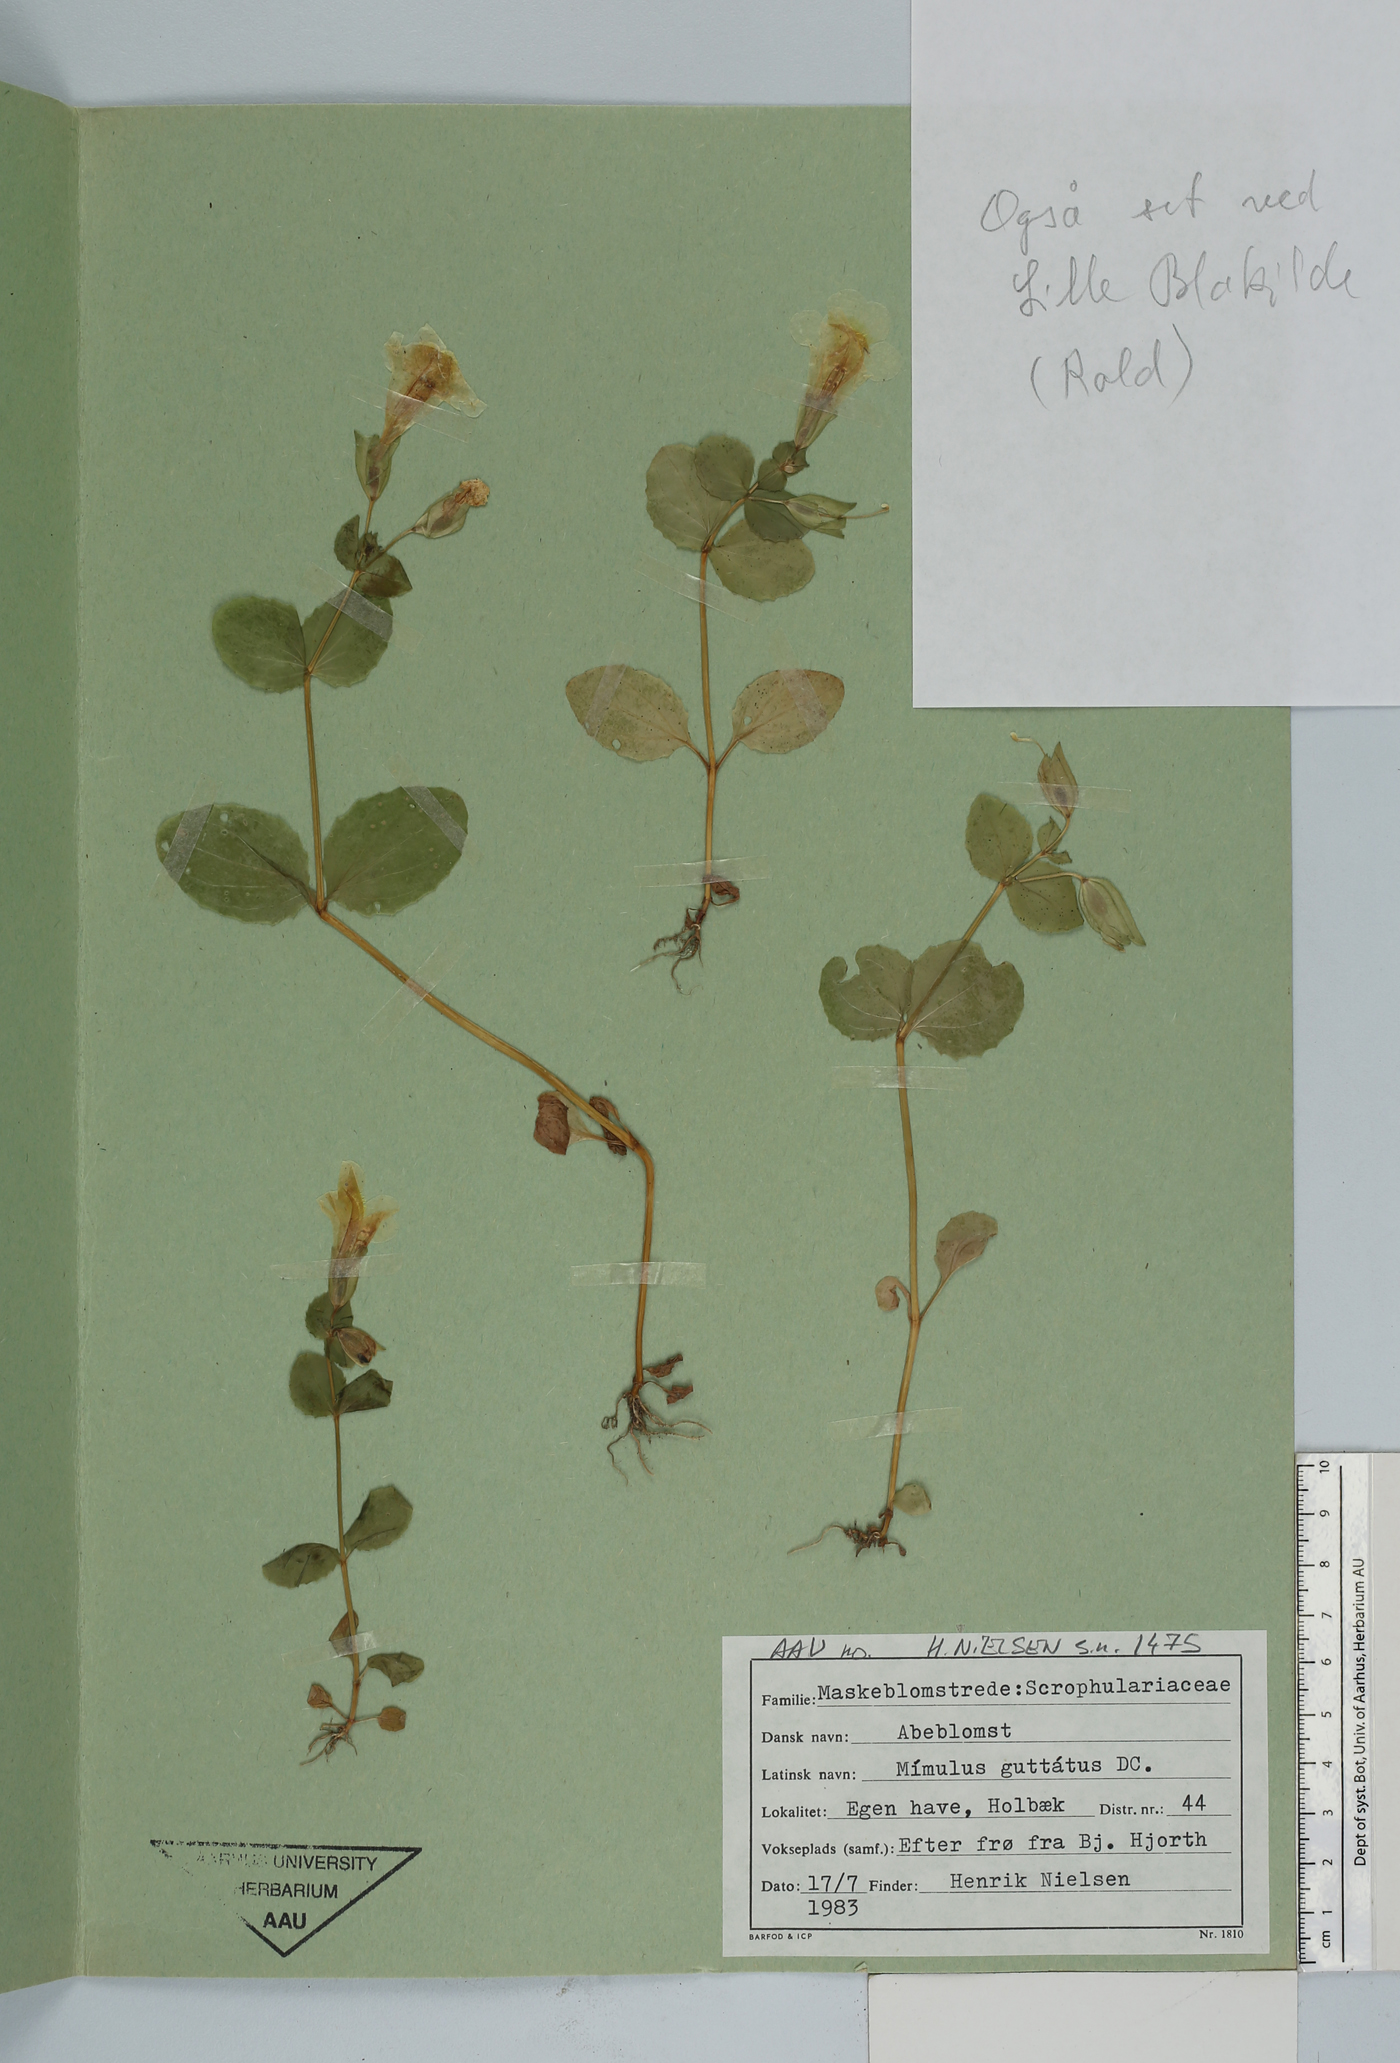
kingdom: Plantae
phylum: Tracheophyta
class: Magnoliopsida
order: Lamiales
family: Phrymaceae
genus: Erythranthe
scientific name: Erythranthe guttata
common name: Monkeyflower
